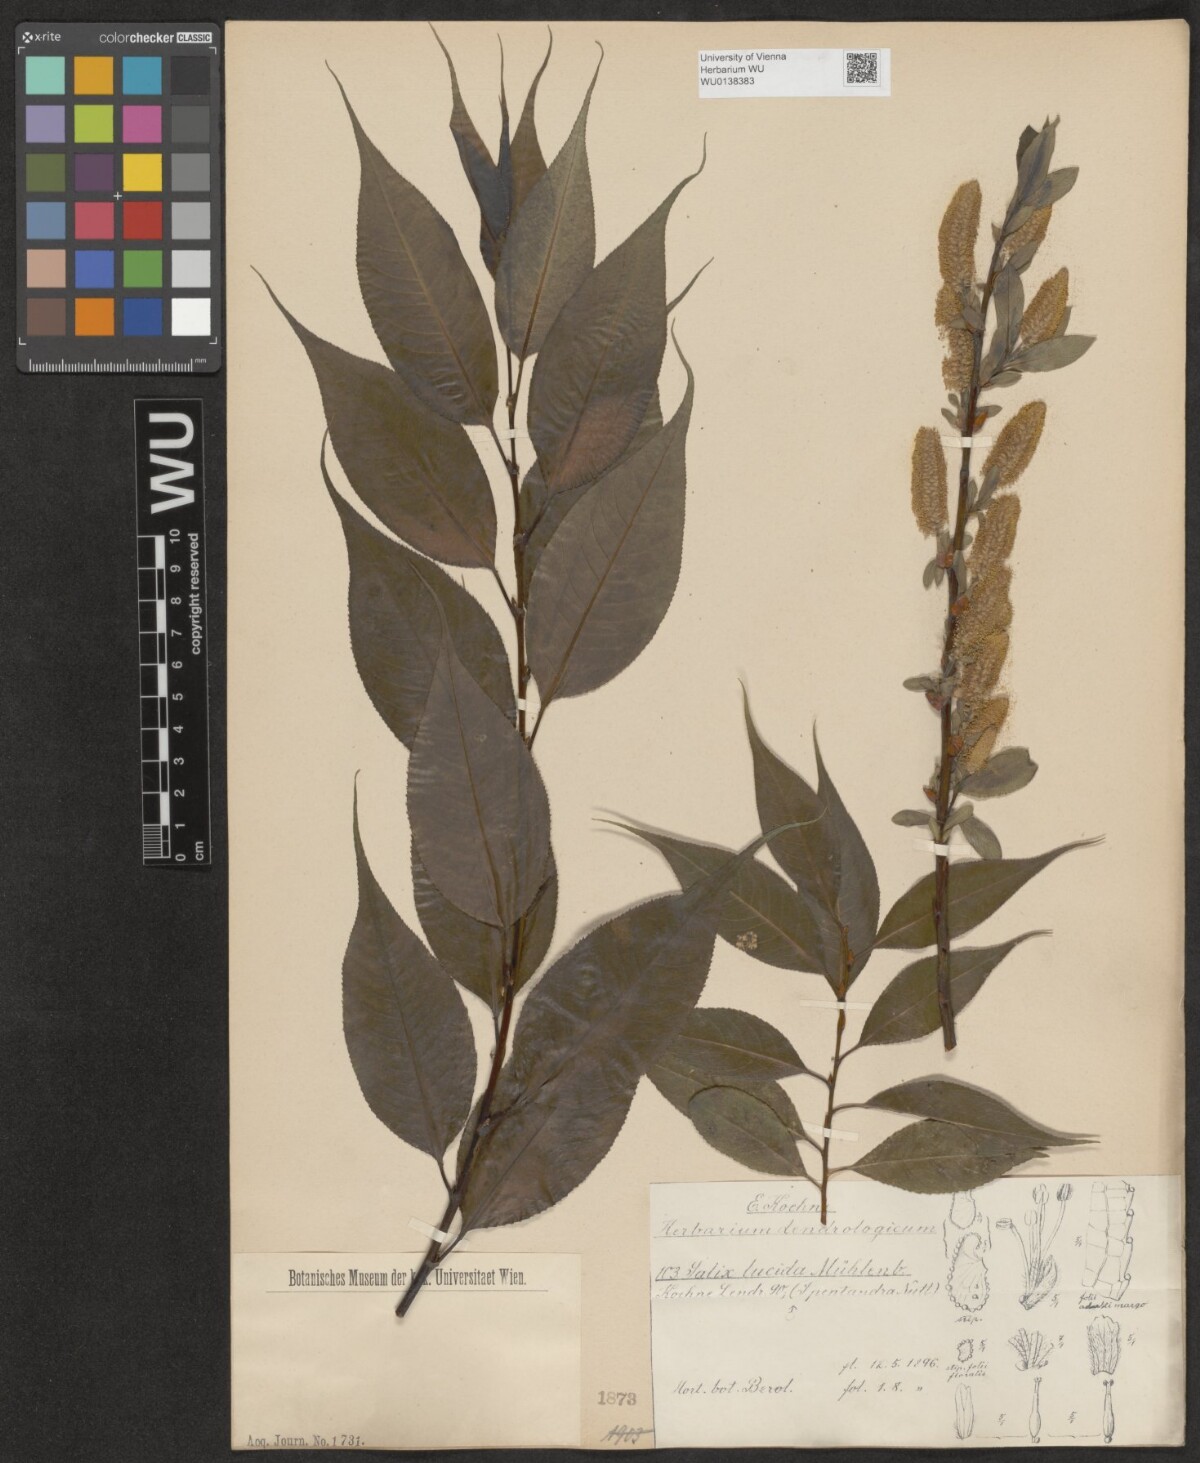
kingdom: Plantae
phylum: Tracheophyta
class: Magnoliopsida
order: Malpighiales
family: Salicaceae
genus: Salix
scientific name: Salix lucida
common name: Shining willow
